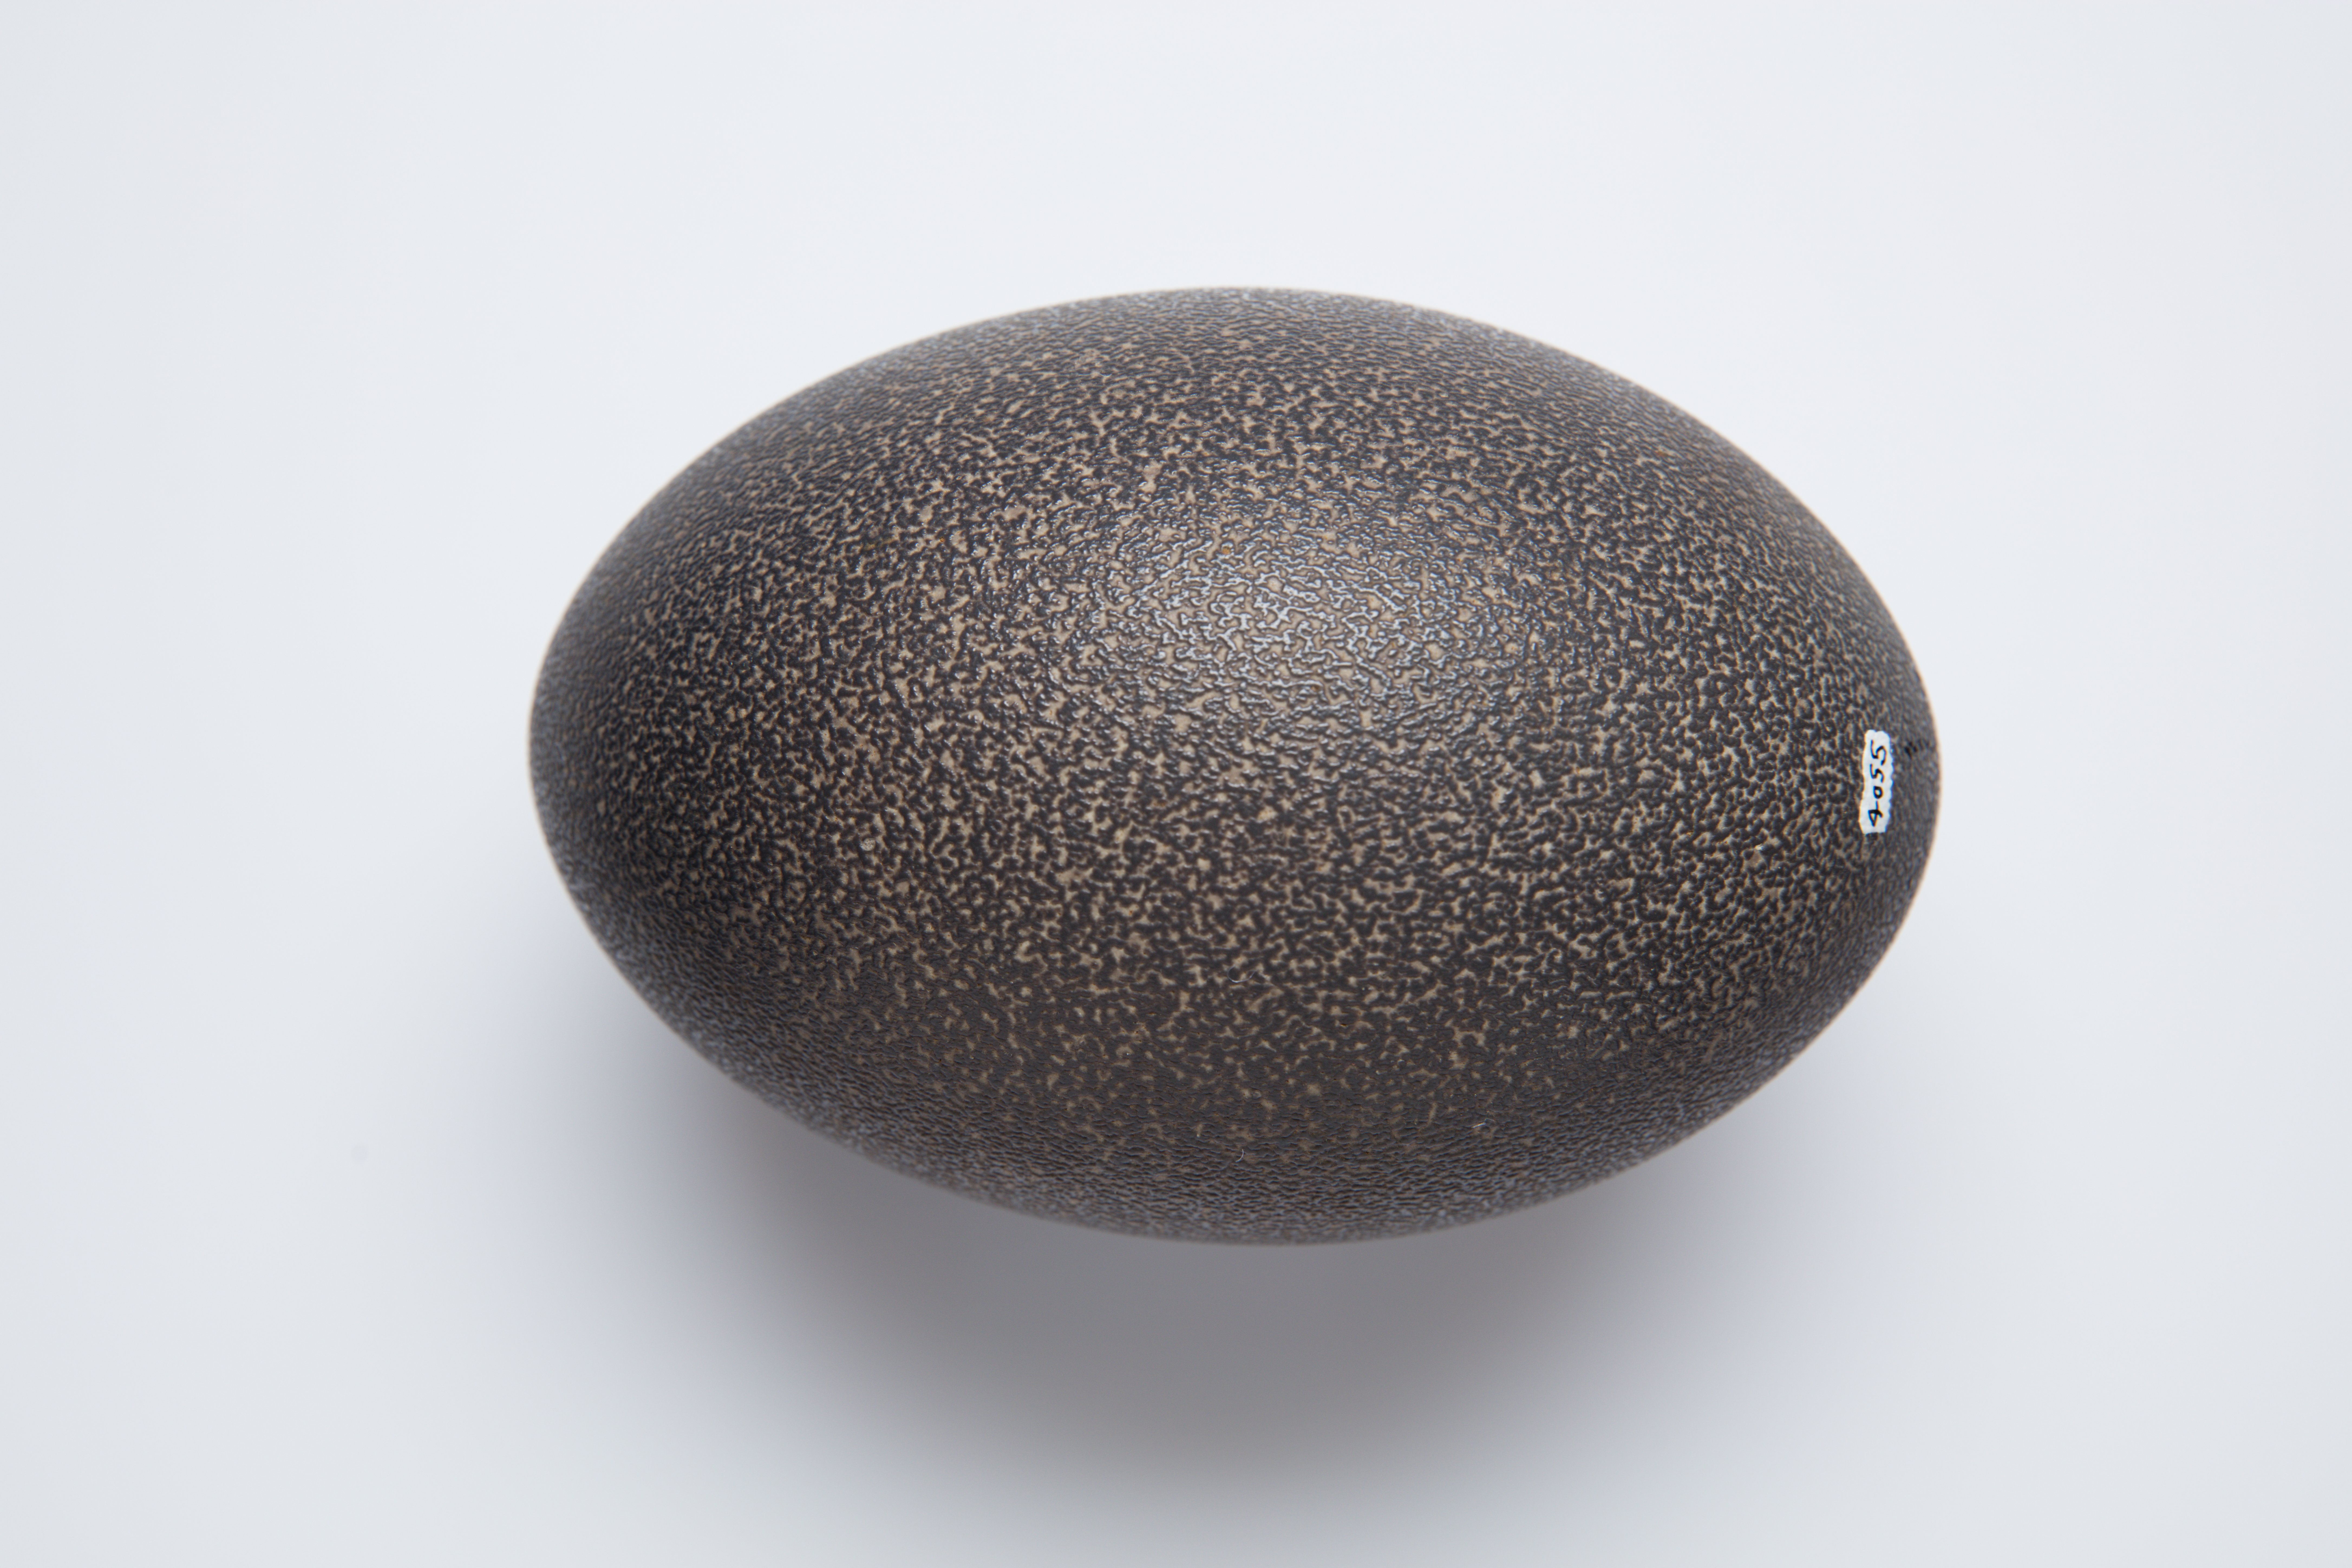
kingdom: Animalia
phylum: Chordata
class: Aves
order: Casuariiformes
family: Dromaiidae
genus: Dromaius
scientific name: Dromaius novaehollandiae
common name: Emu
